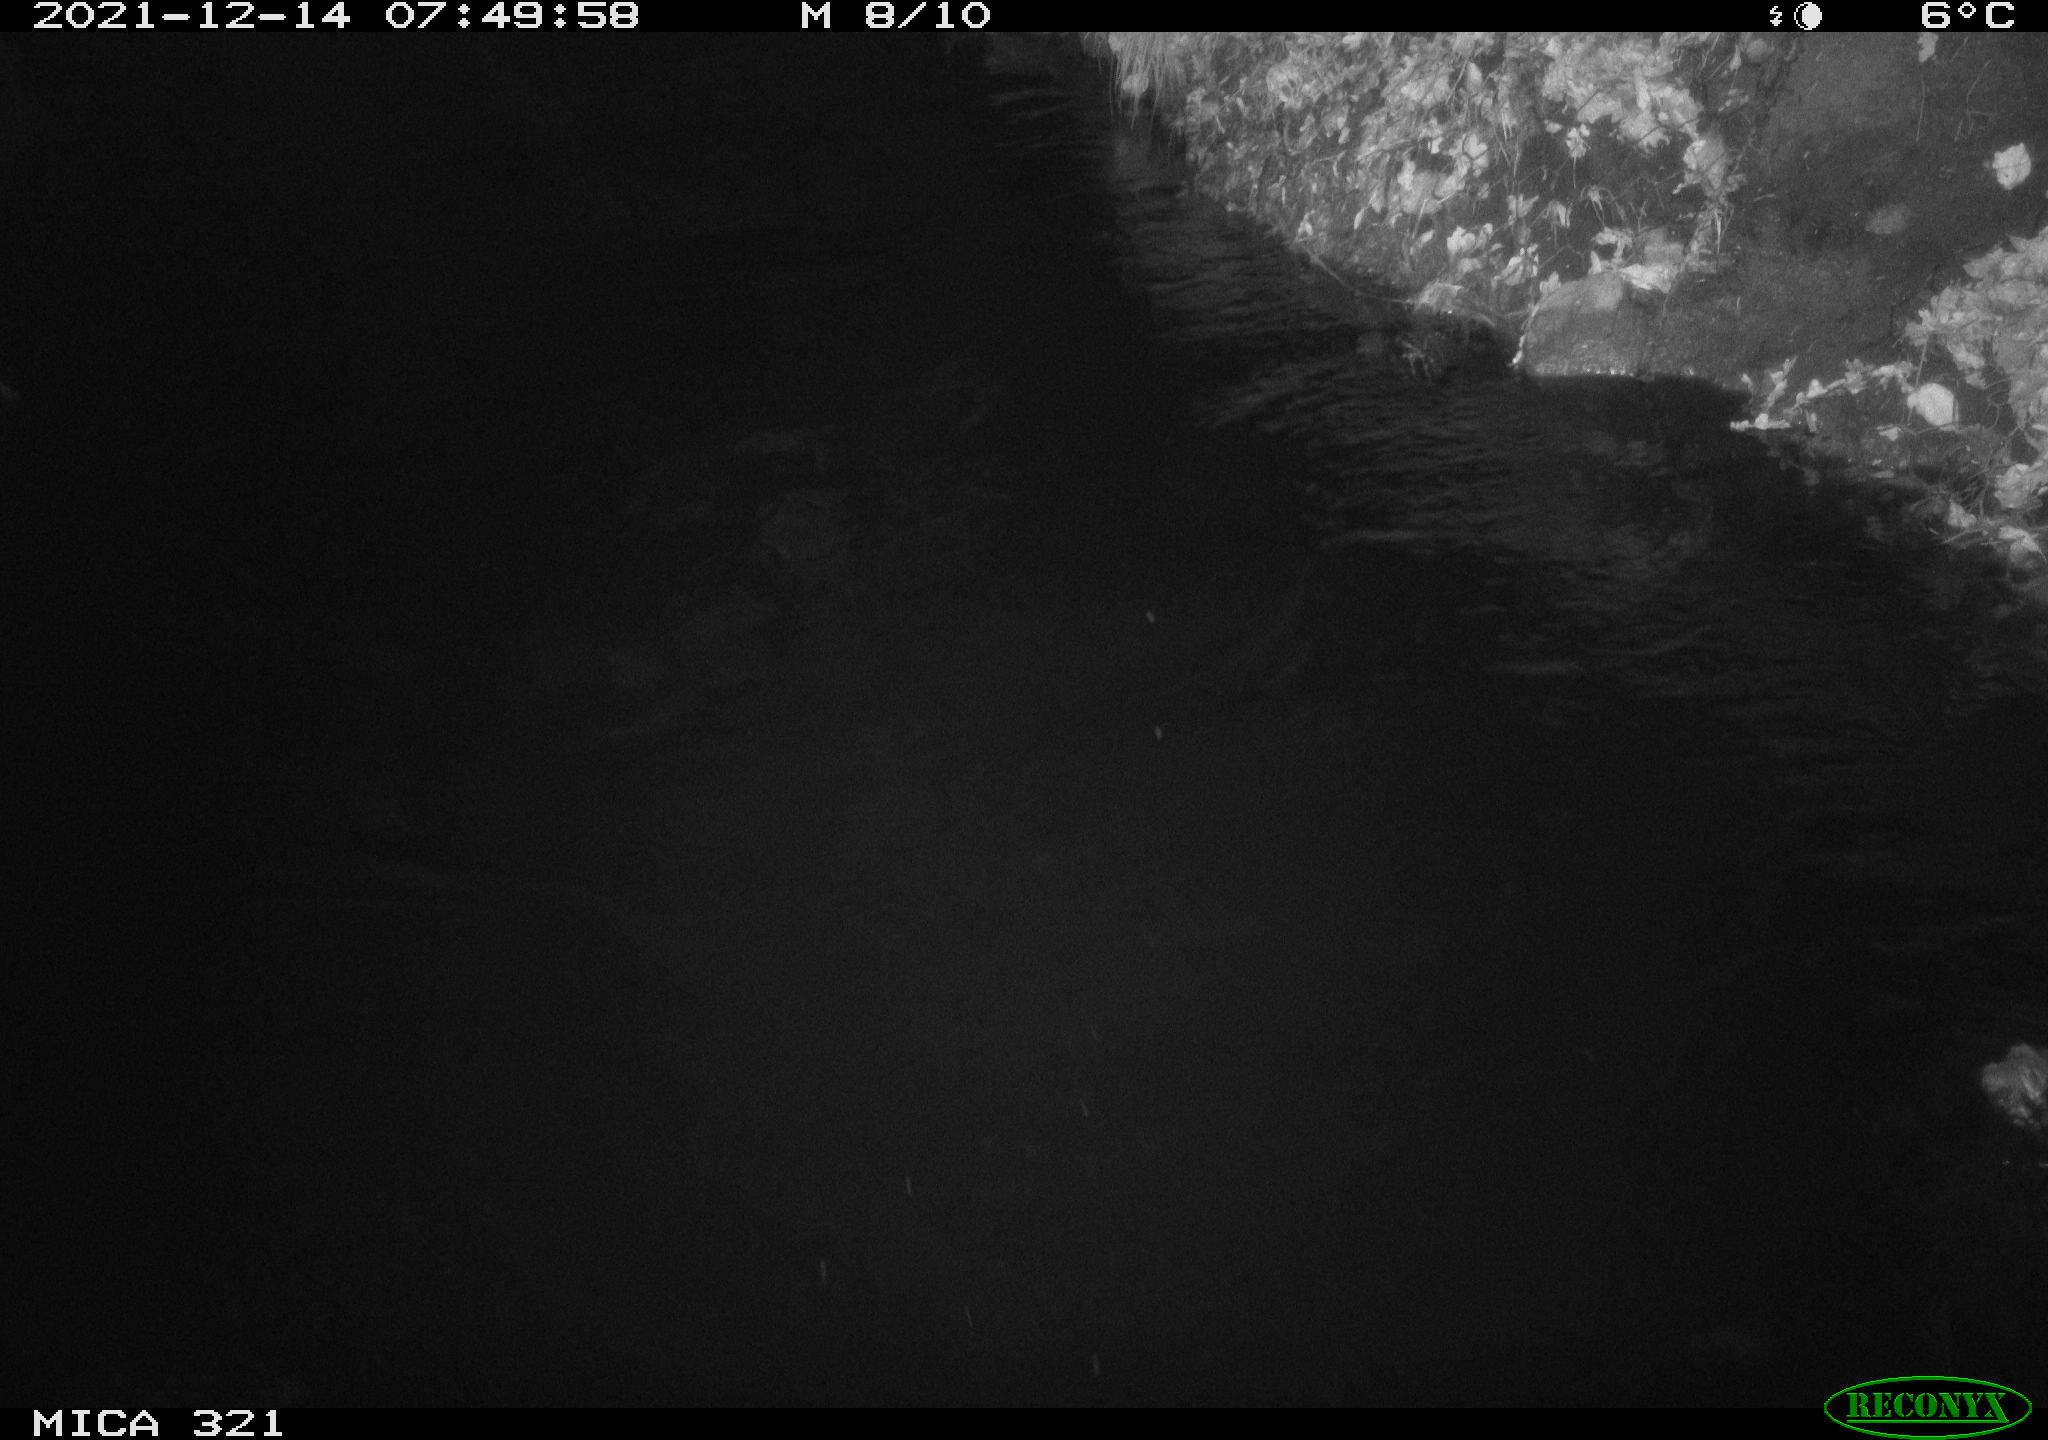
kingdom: Animalia
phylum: Chordata
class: Aves
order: Anseriformes
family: Anatidae
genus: Anas
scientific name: Anas
